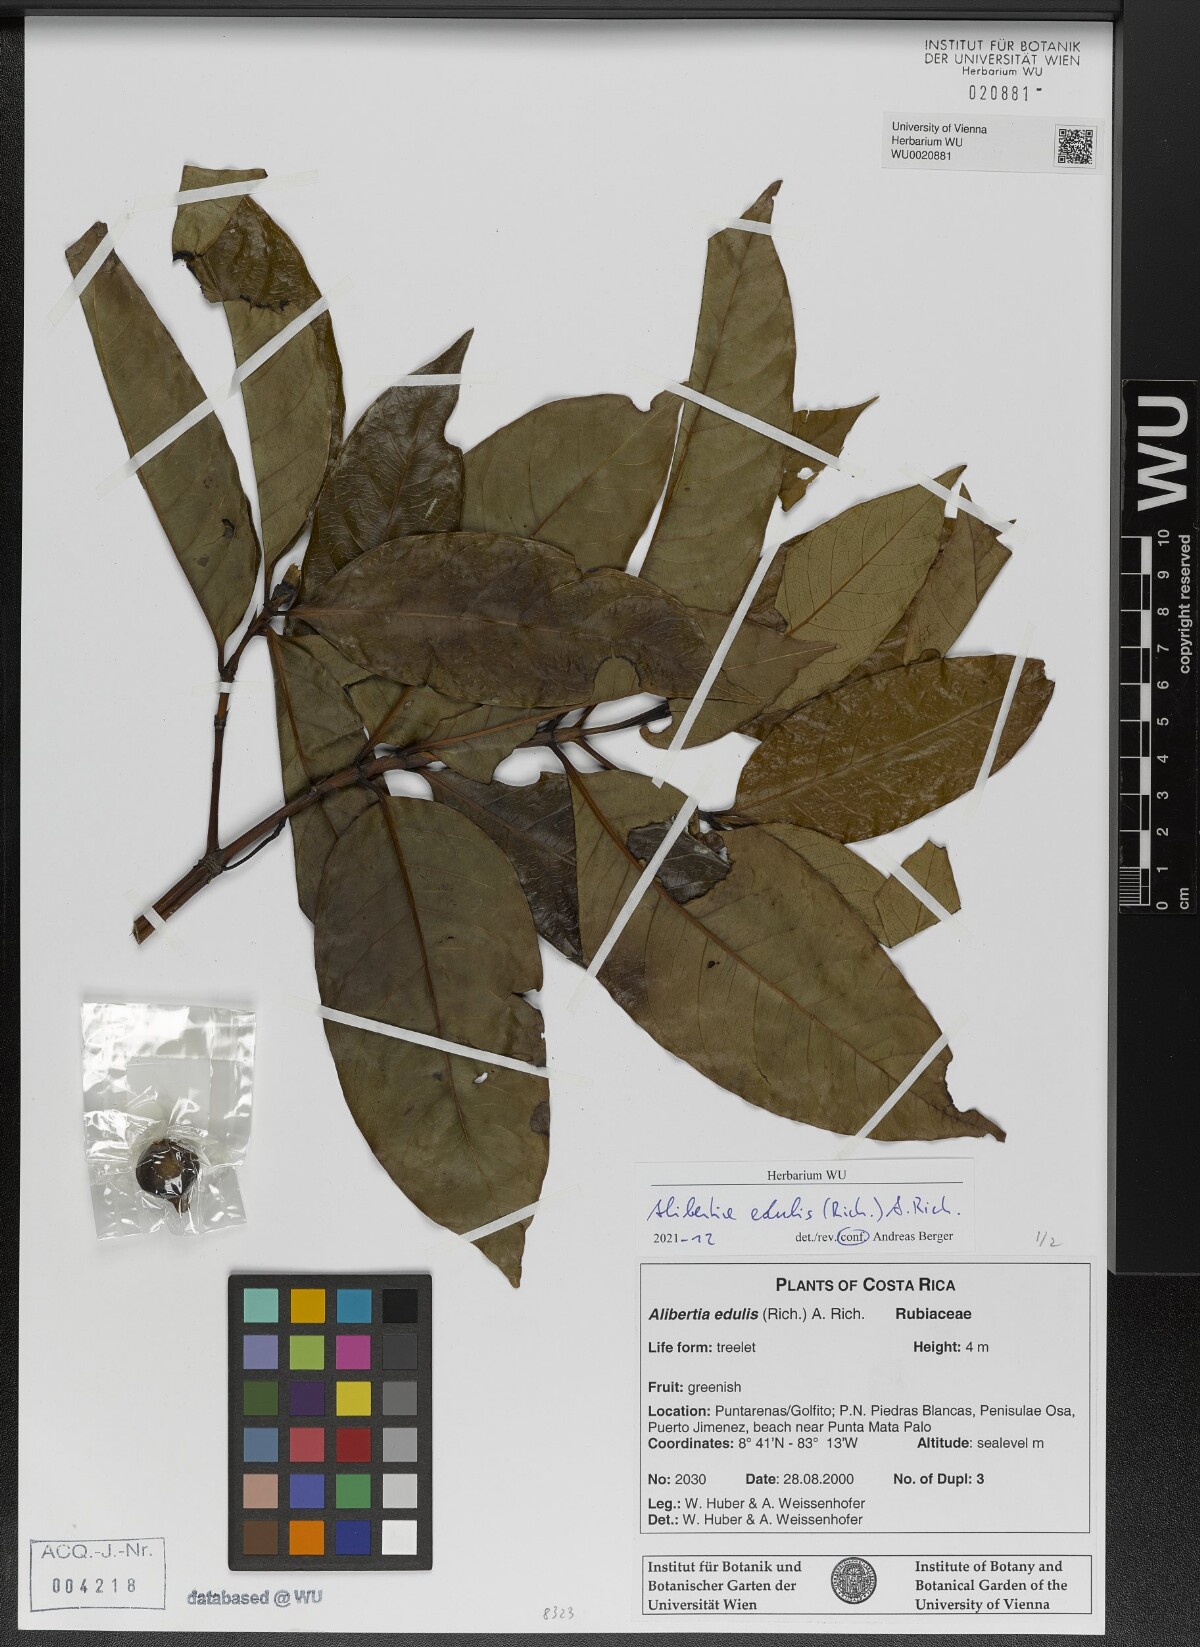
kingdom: Plantae
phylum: Tracheophyta
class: Magnoliopsida
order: Gentianales
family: Rubiaceae
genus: Alibertia
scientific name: Alibertia edulis
